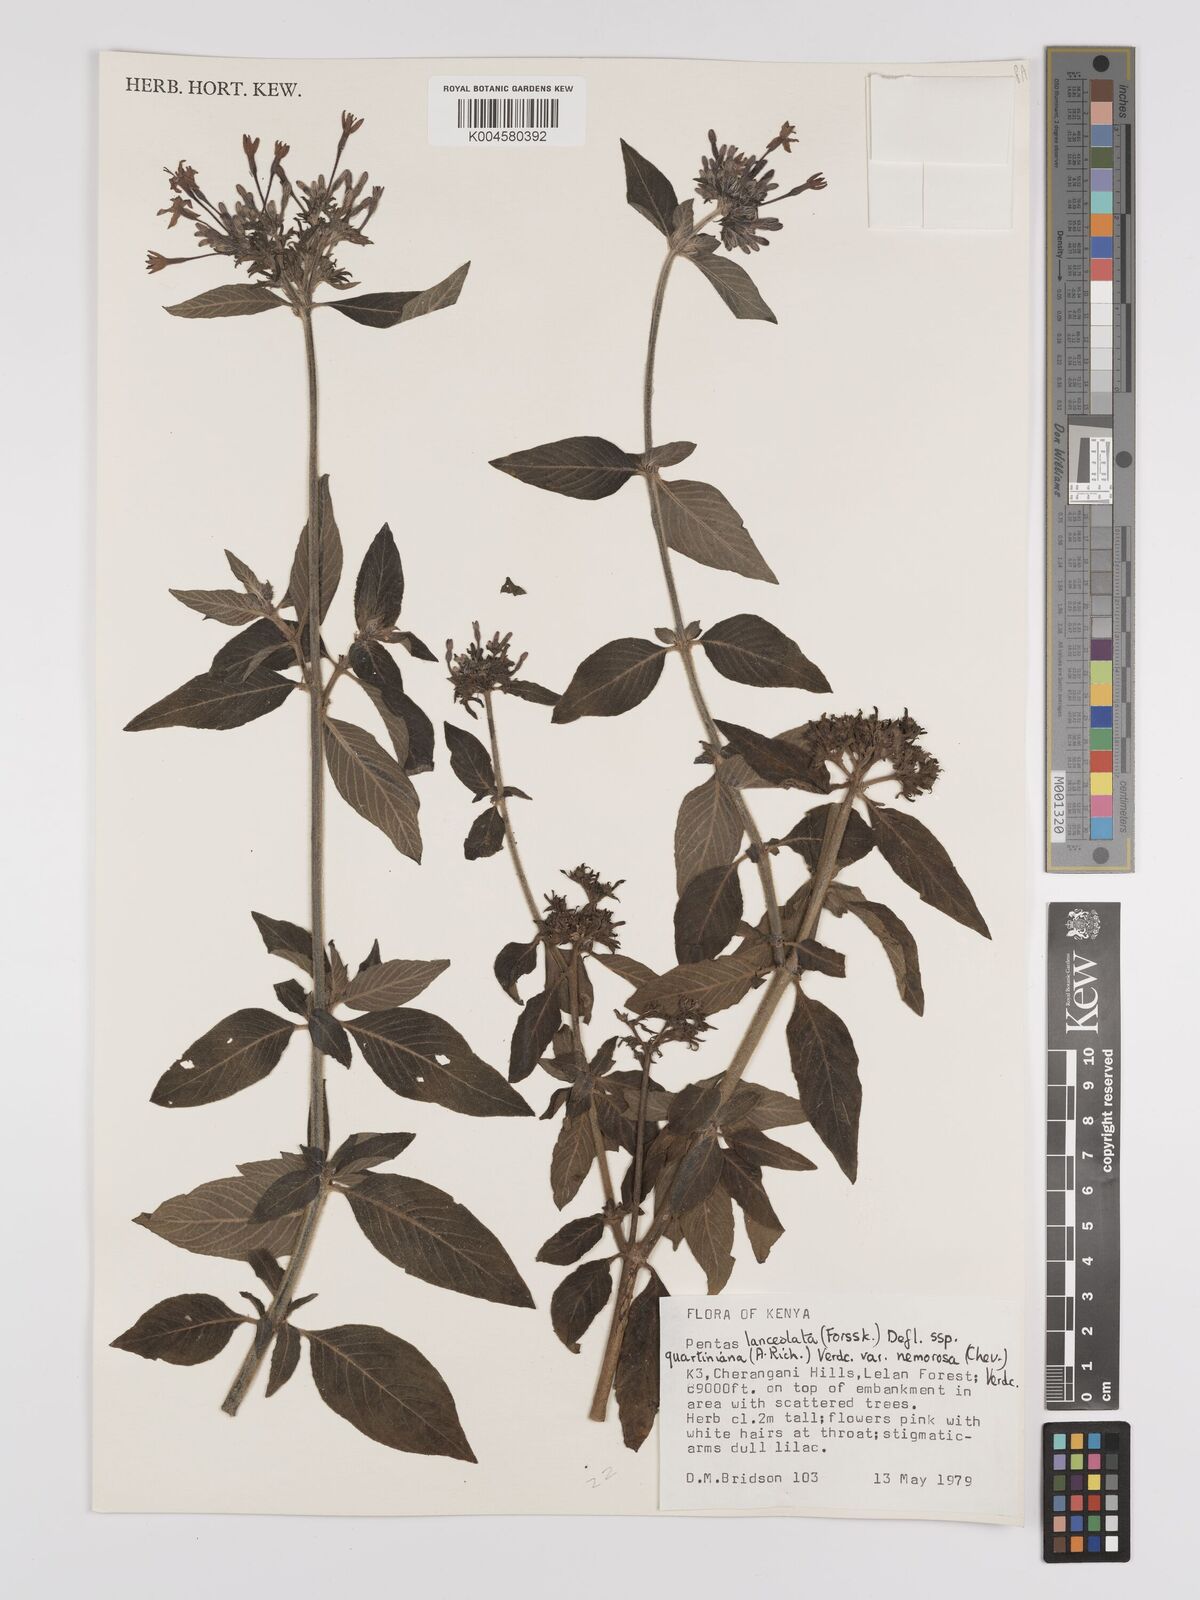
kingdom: Plantae
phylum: Tracheophyta
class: Magnoliopsida
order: Gentianales
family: Rubiaceae
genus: Pentas
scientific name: Pentas
